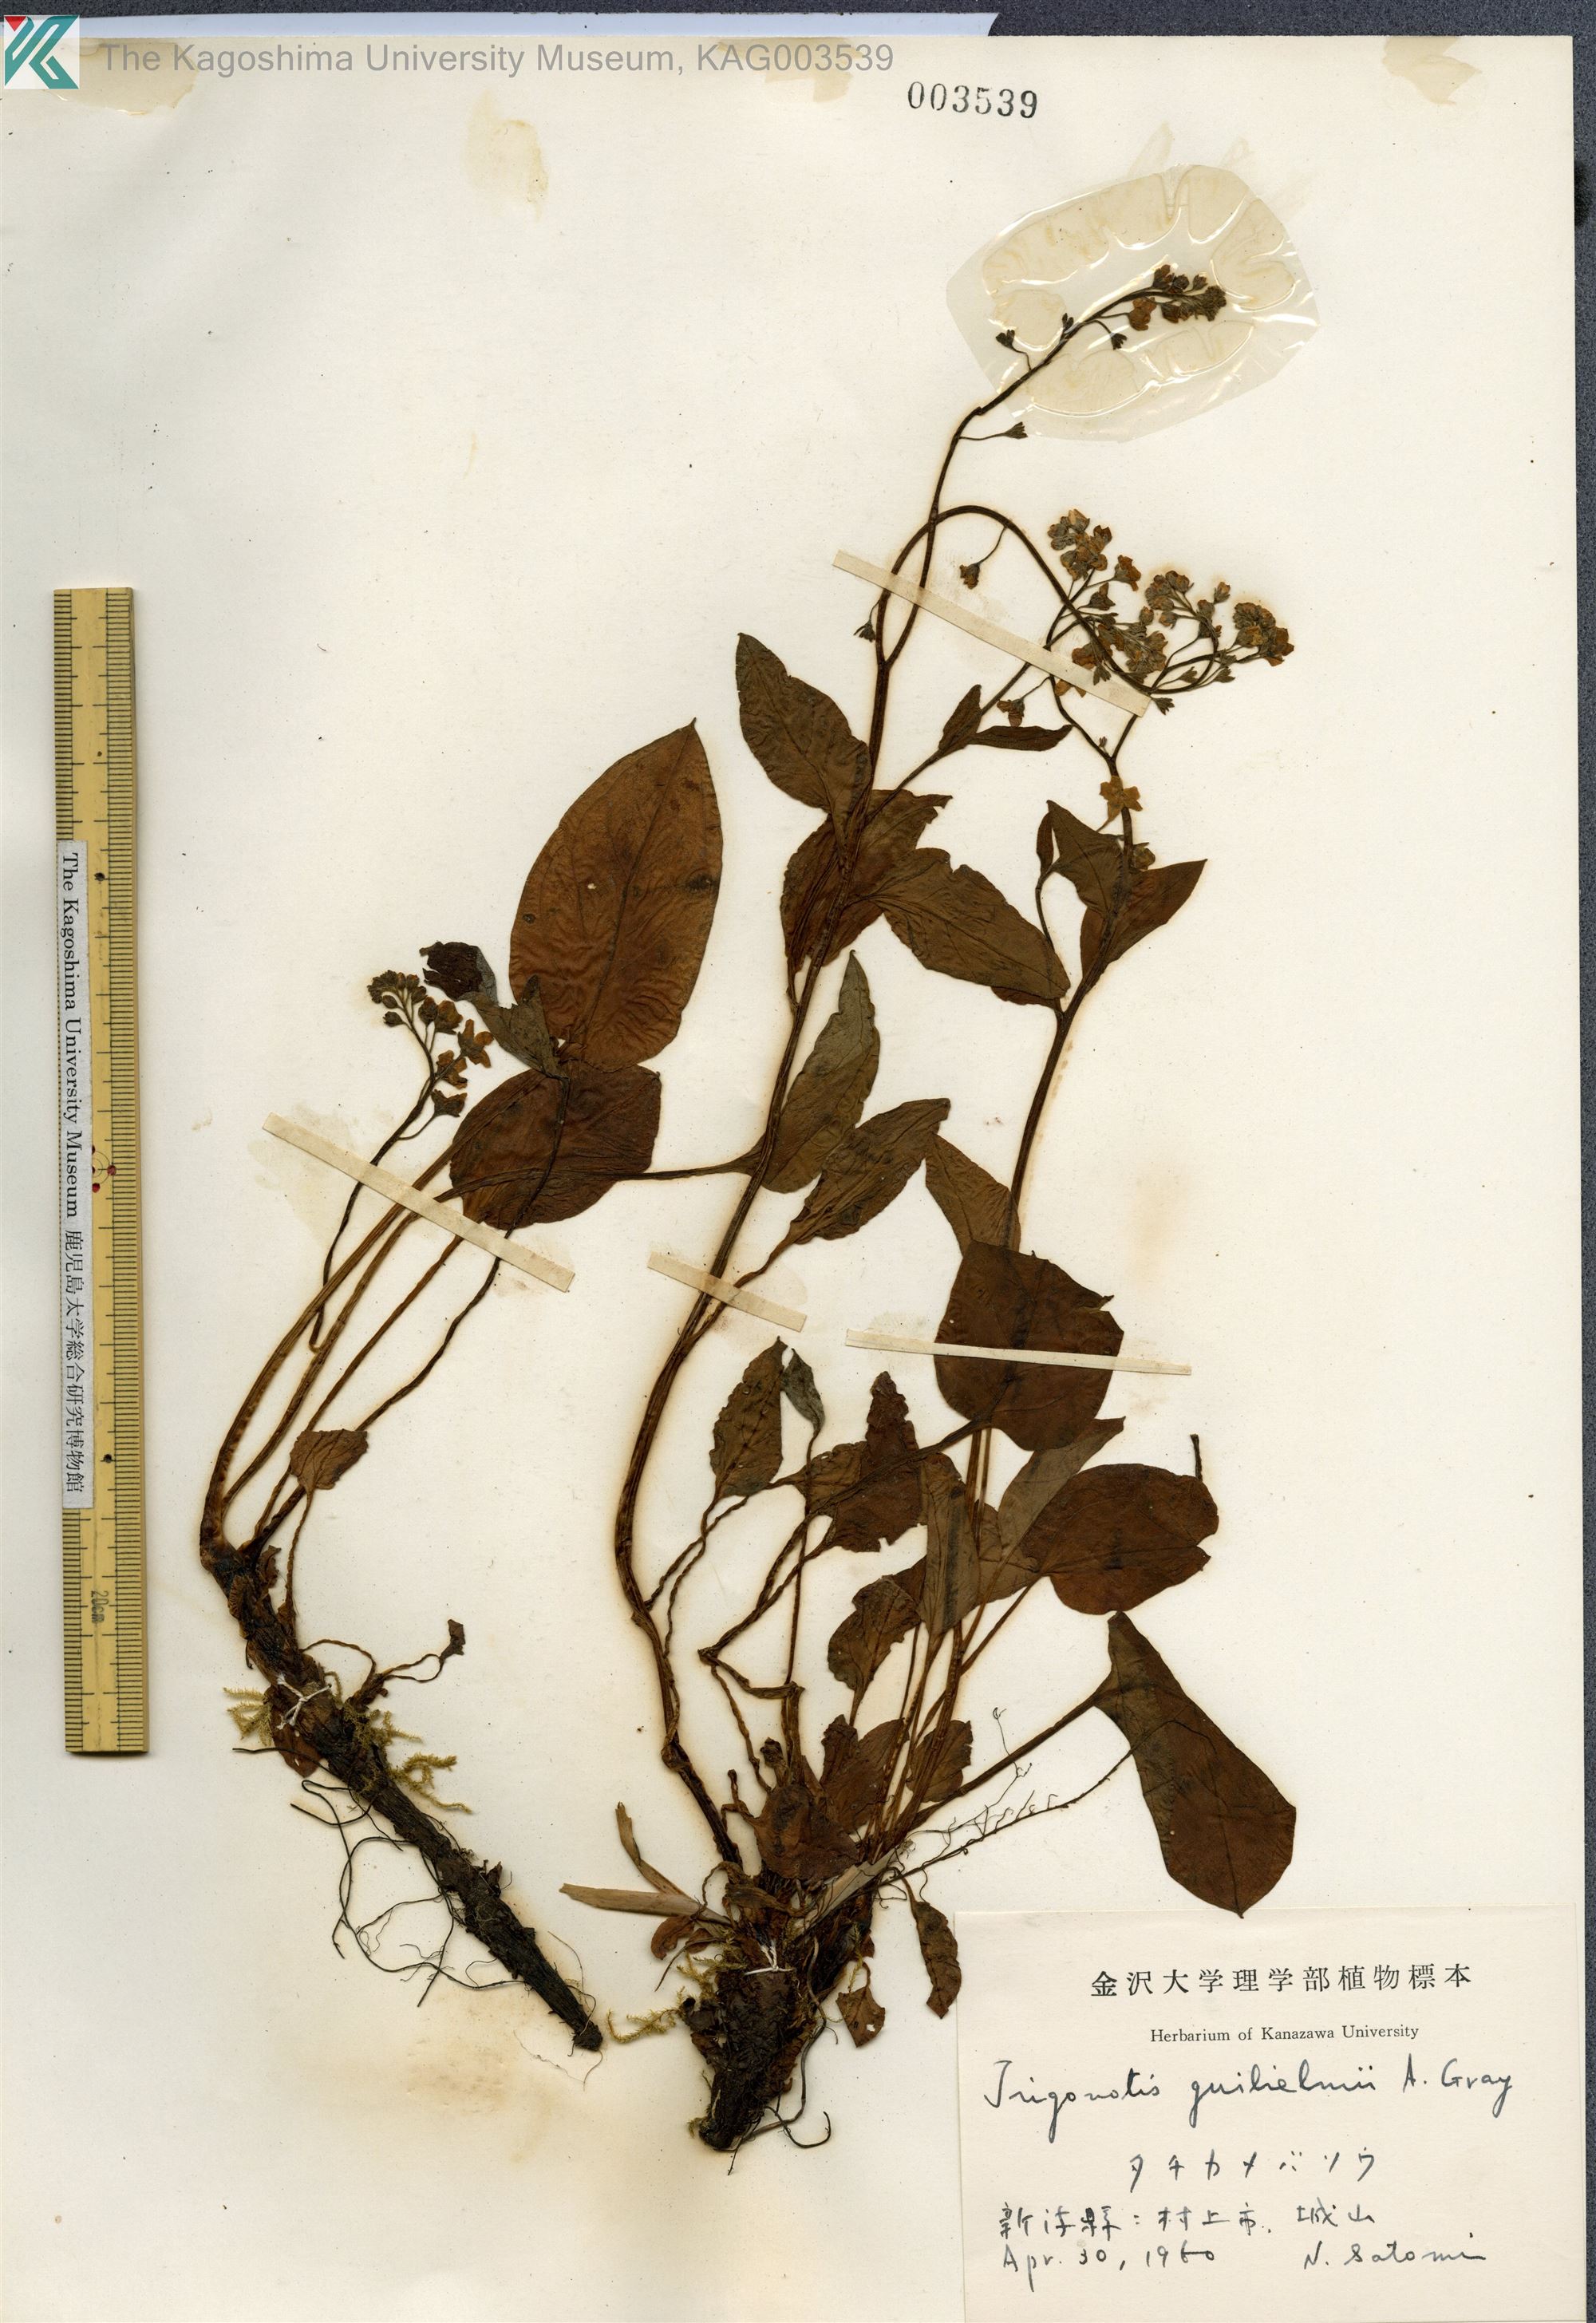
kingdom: Plantae
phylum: Tracheophyta
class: Magnoliopsida
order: Boraginales
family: Boraginaceae
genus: Trigonotis
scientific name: Trigonotis guilielmii
